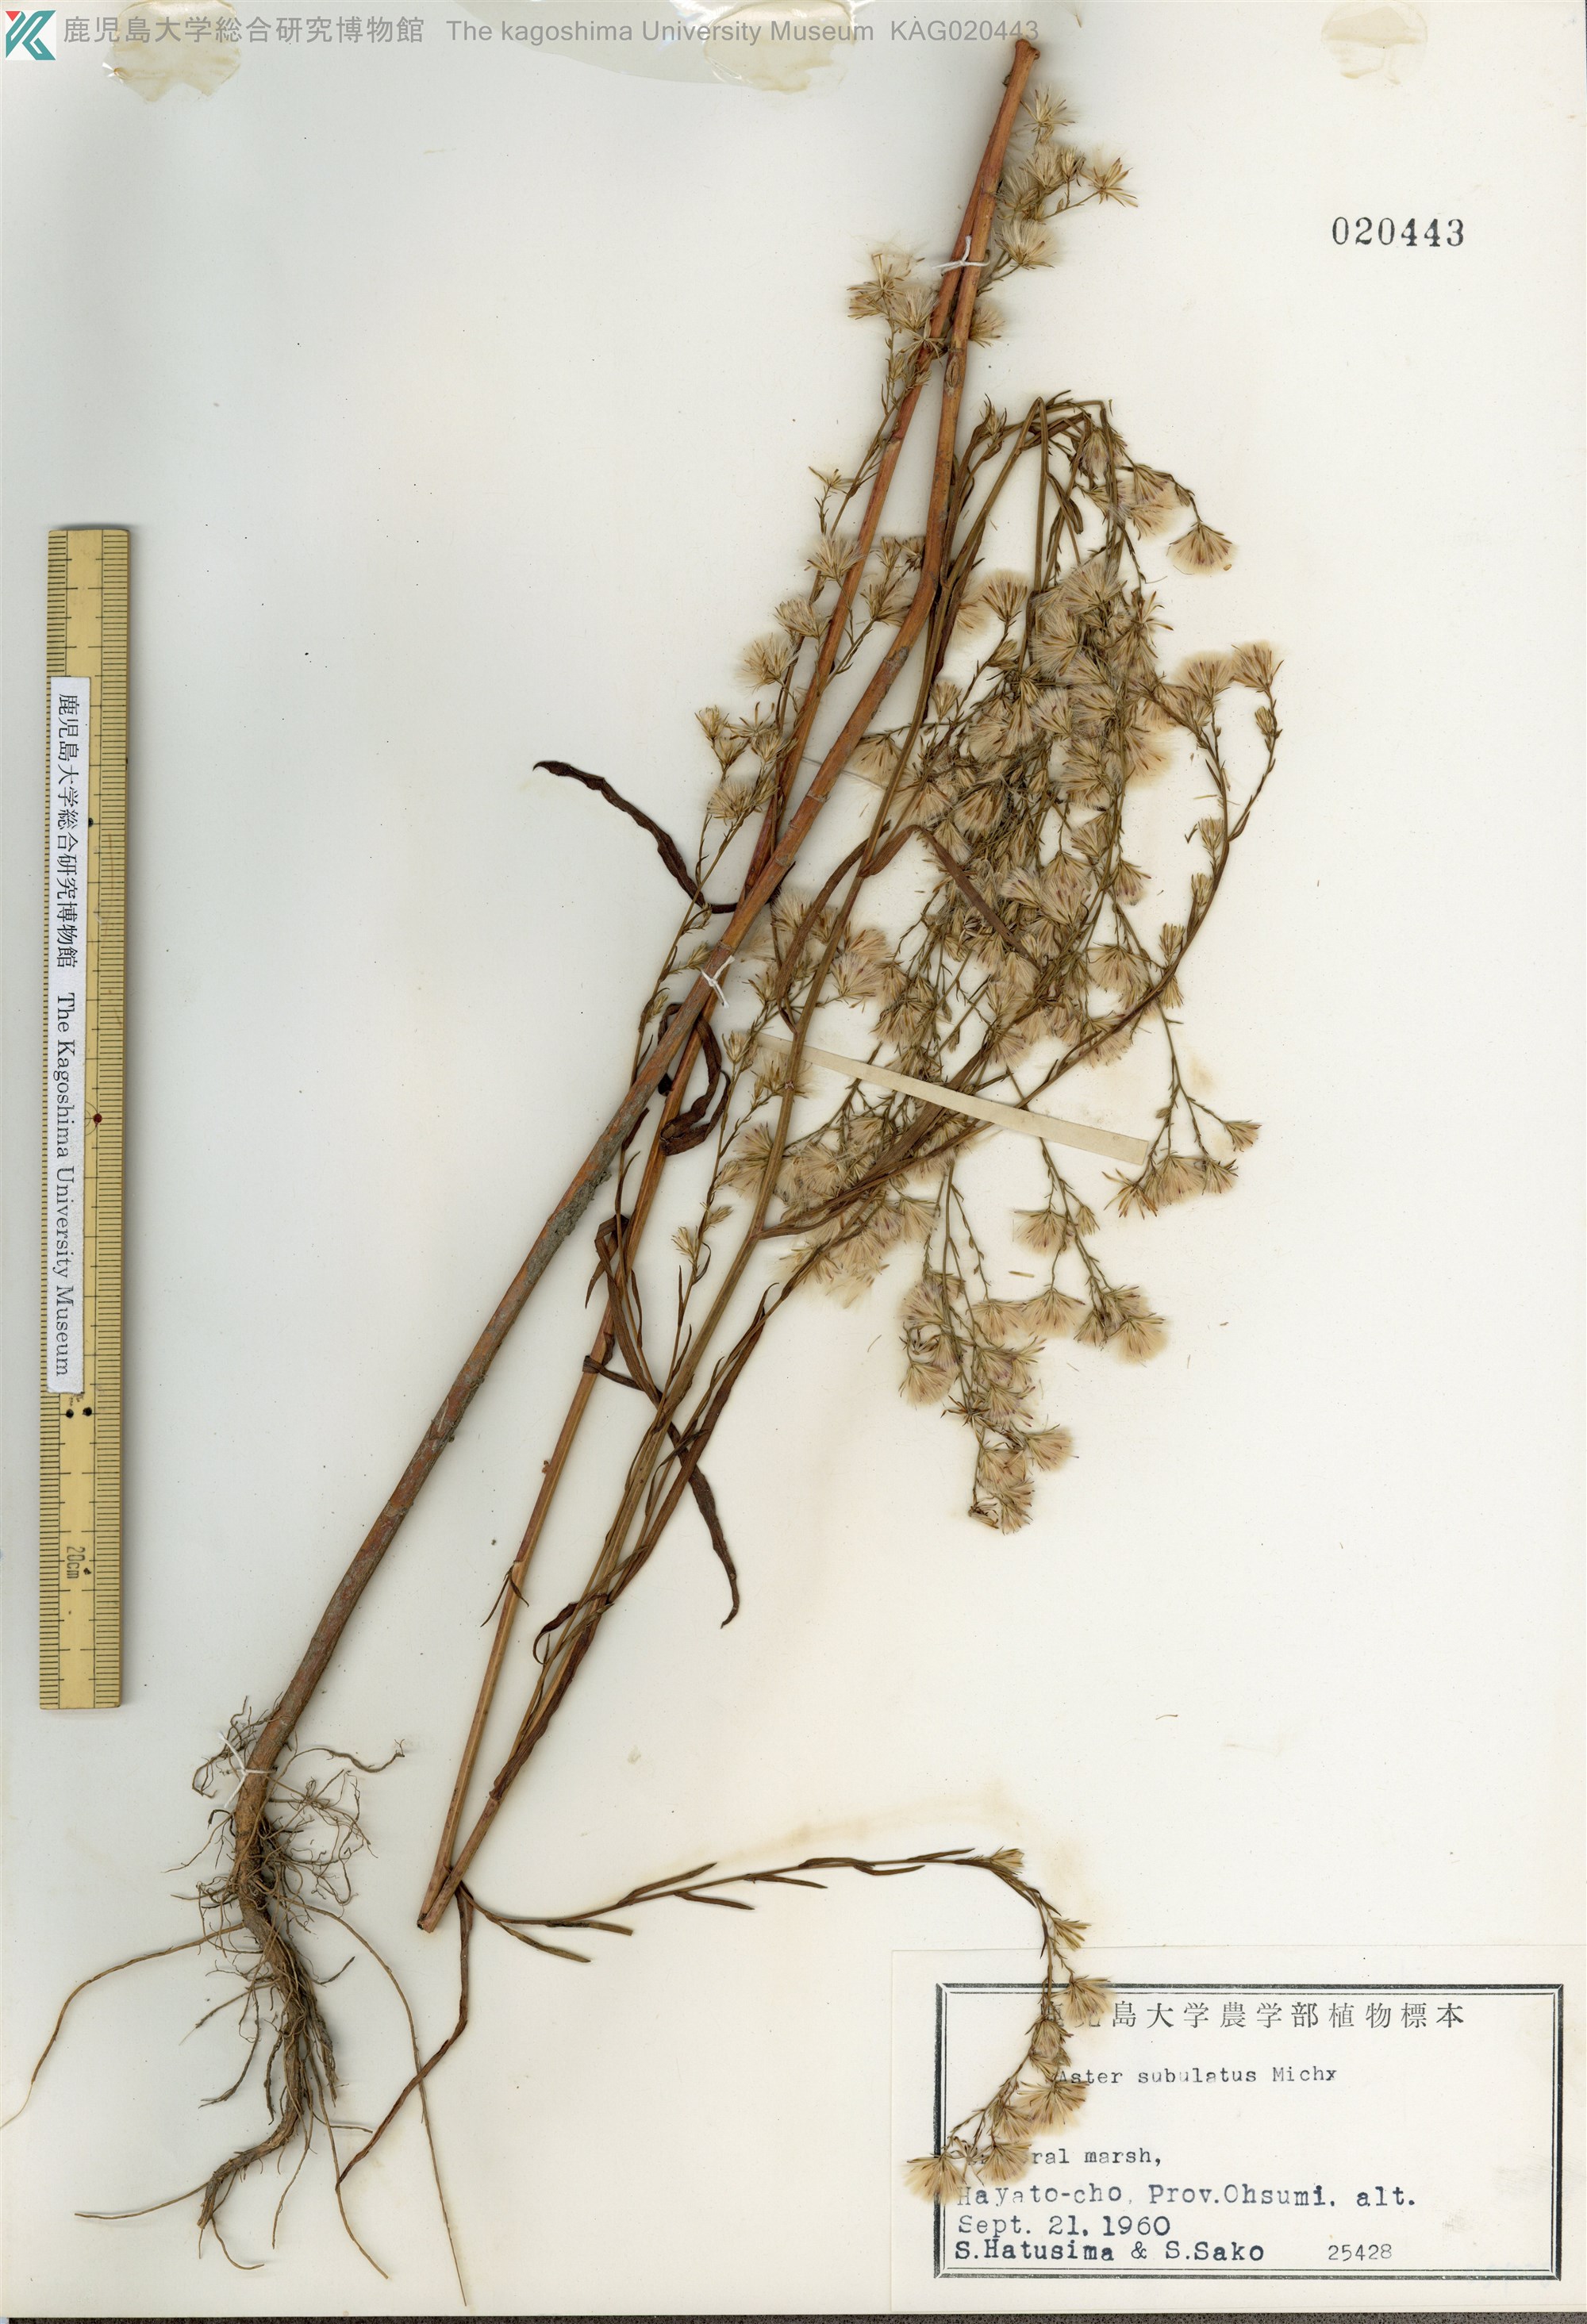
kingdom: Plantae
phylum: Tracheophyta
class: Magnoliopsida
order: Asterales
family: Asteraceae
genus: Symphyotrichum
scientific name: Symphyotrichum subulatum
